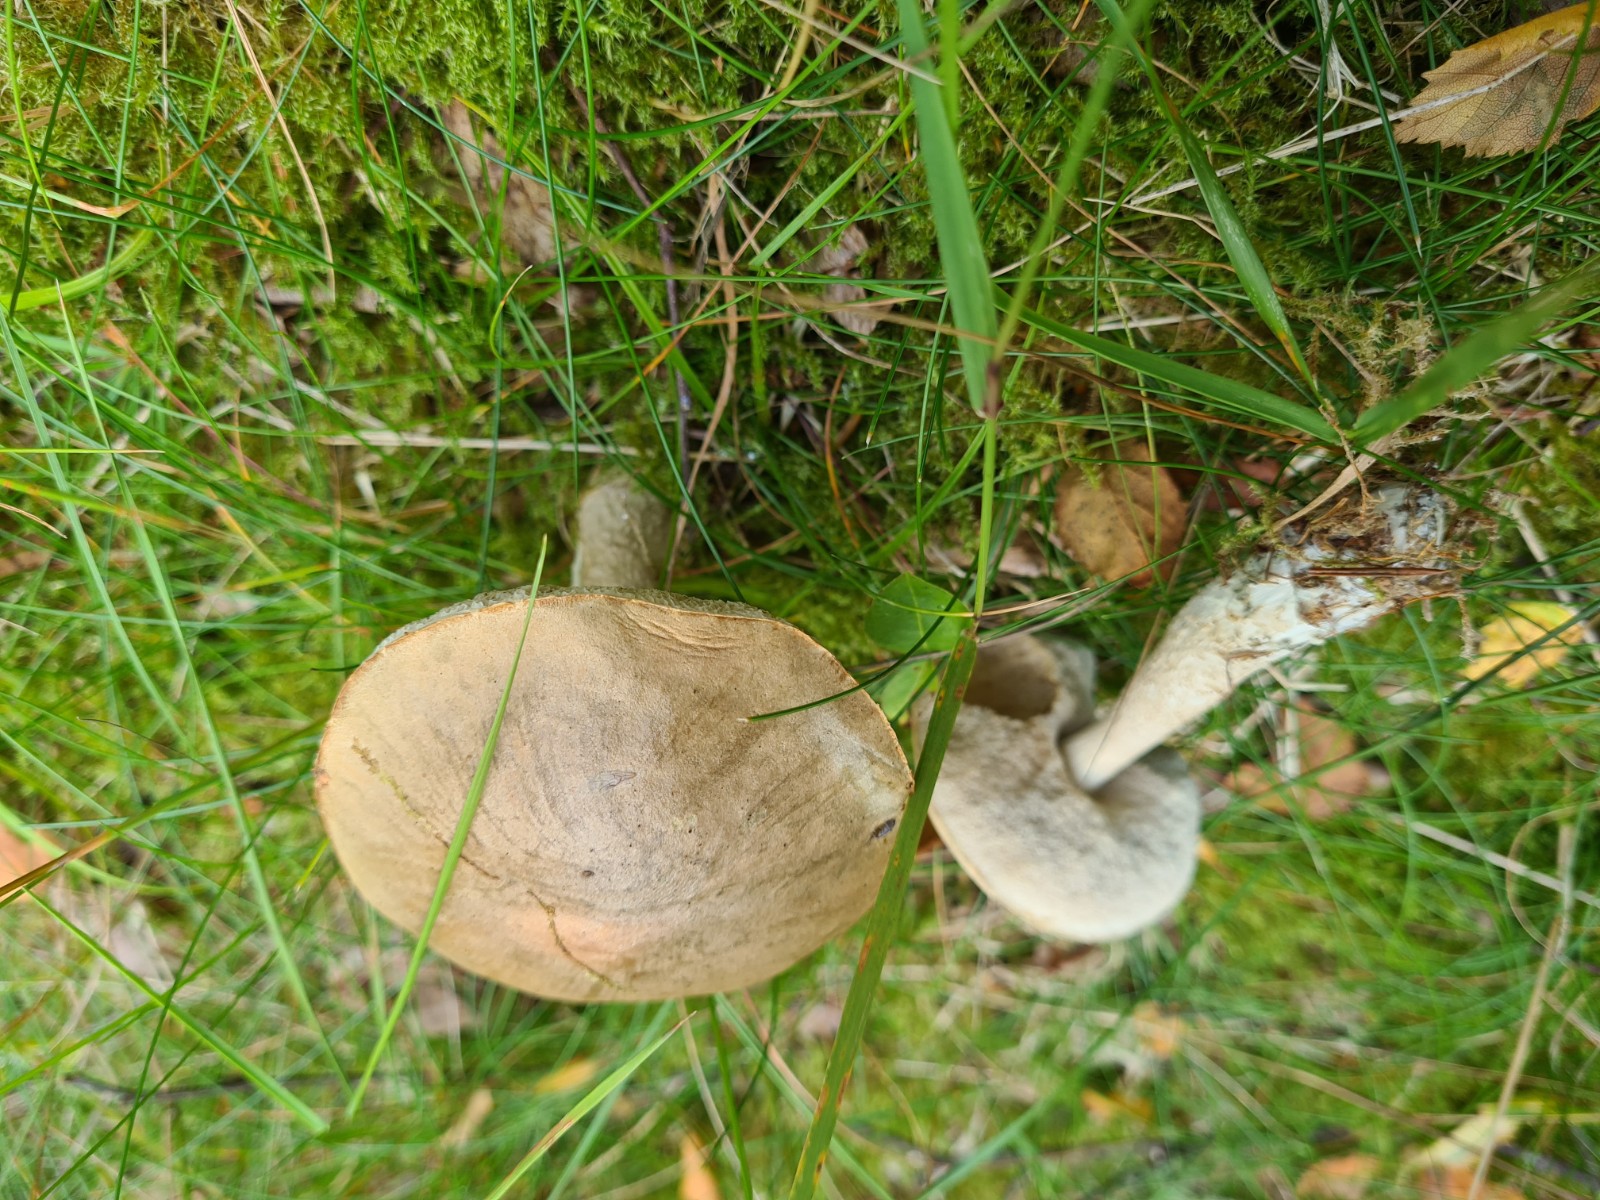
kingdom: Fungi
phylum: Basidiomycota
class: Agaricomycetes
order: Boletales
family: Boletaceae
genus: Leccinum
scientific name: Leccinum
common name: skælrørhat
